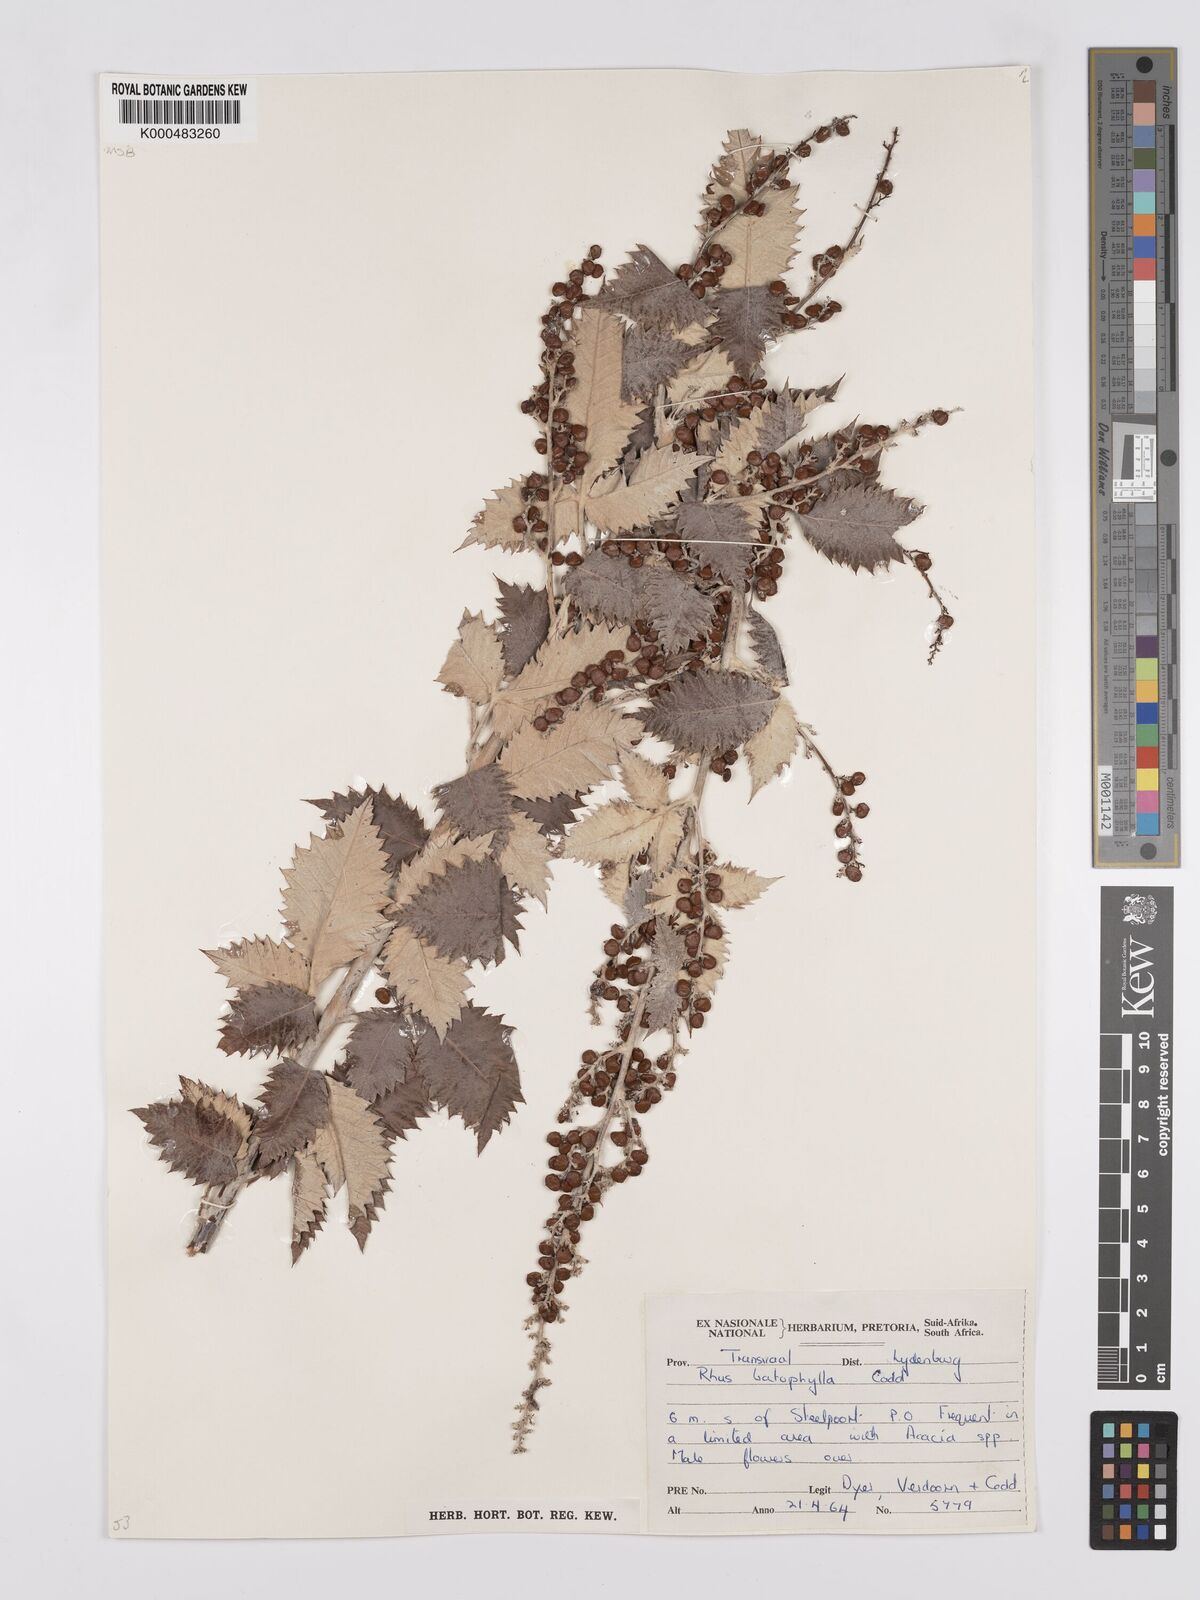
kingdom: Plantae
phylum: Tracheophyta
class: Magnoliopsida
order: Sapindales
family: Anacardiaceae
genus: Searsia
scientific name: Searsia batophylla
